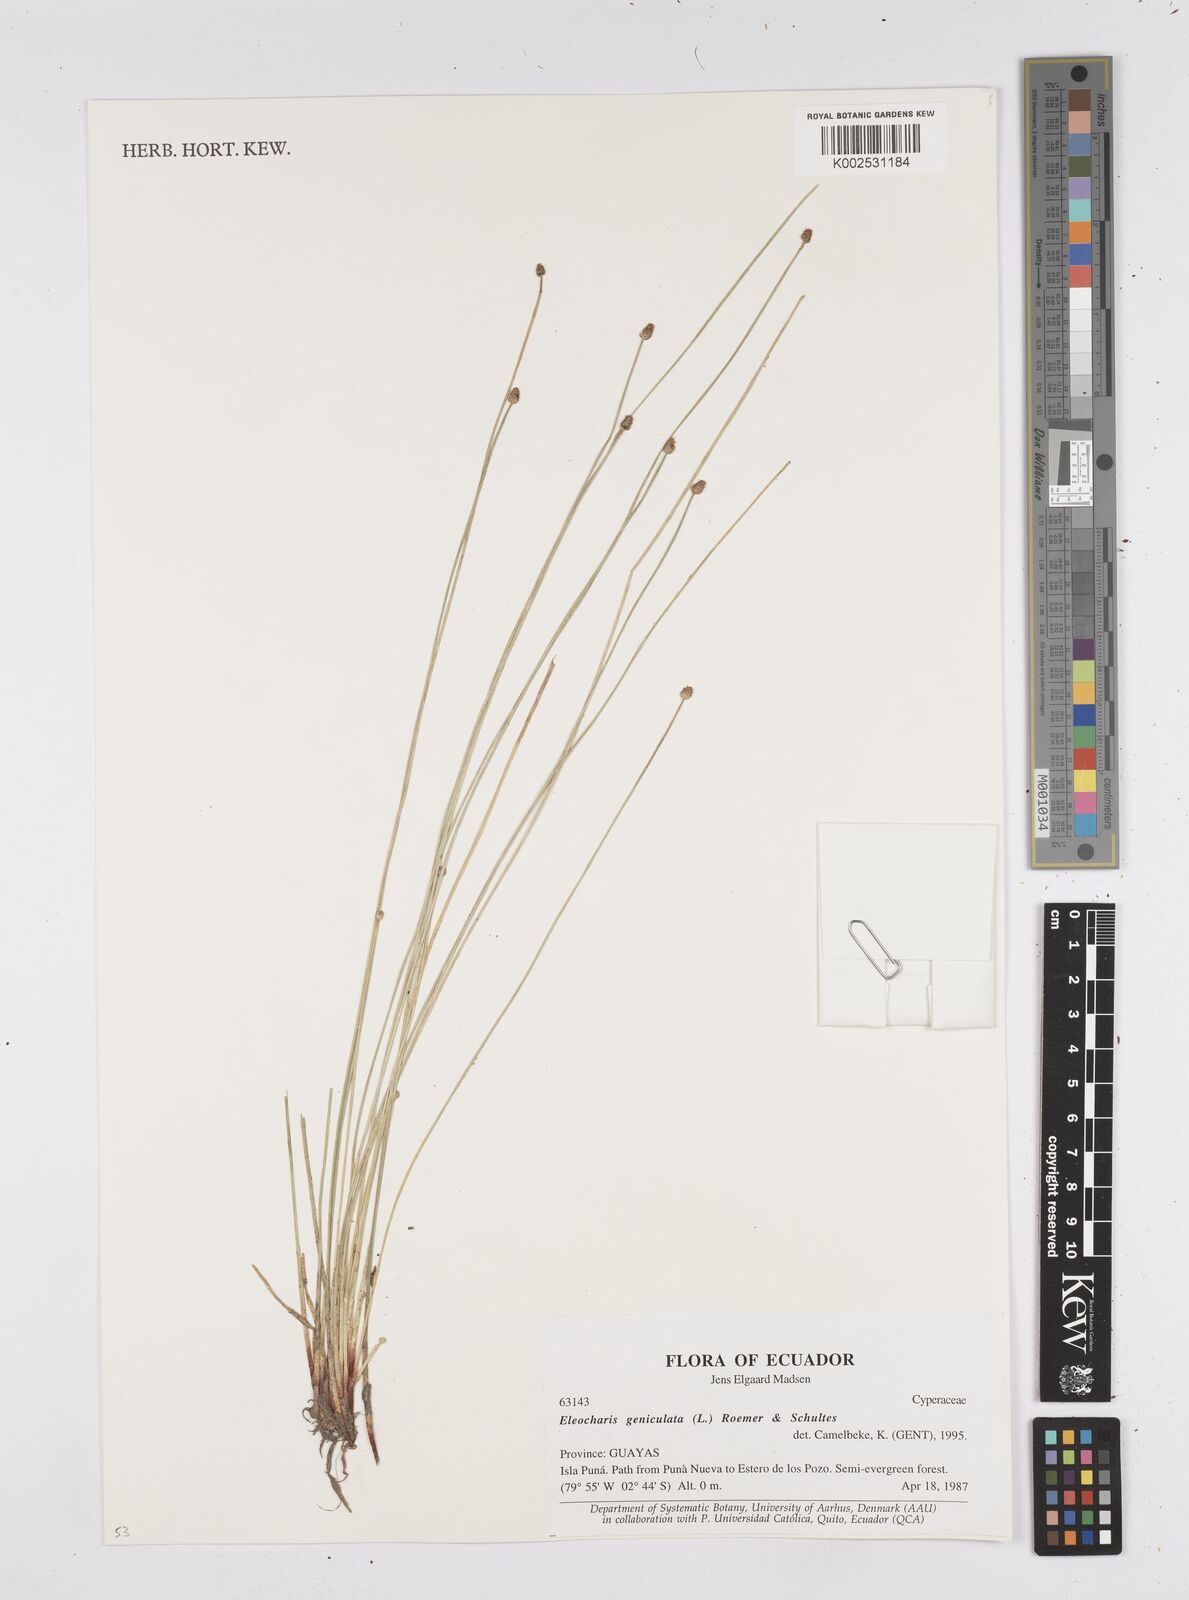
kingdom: Plantae
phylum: Tracheophyta
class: Liliopsida
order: Poales
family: Cyperaceae
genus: Eleocharis
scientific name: Eleocharis geniculata
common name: Canada spikesedge
